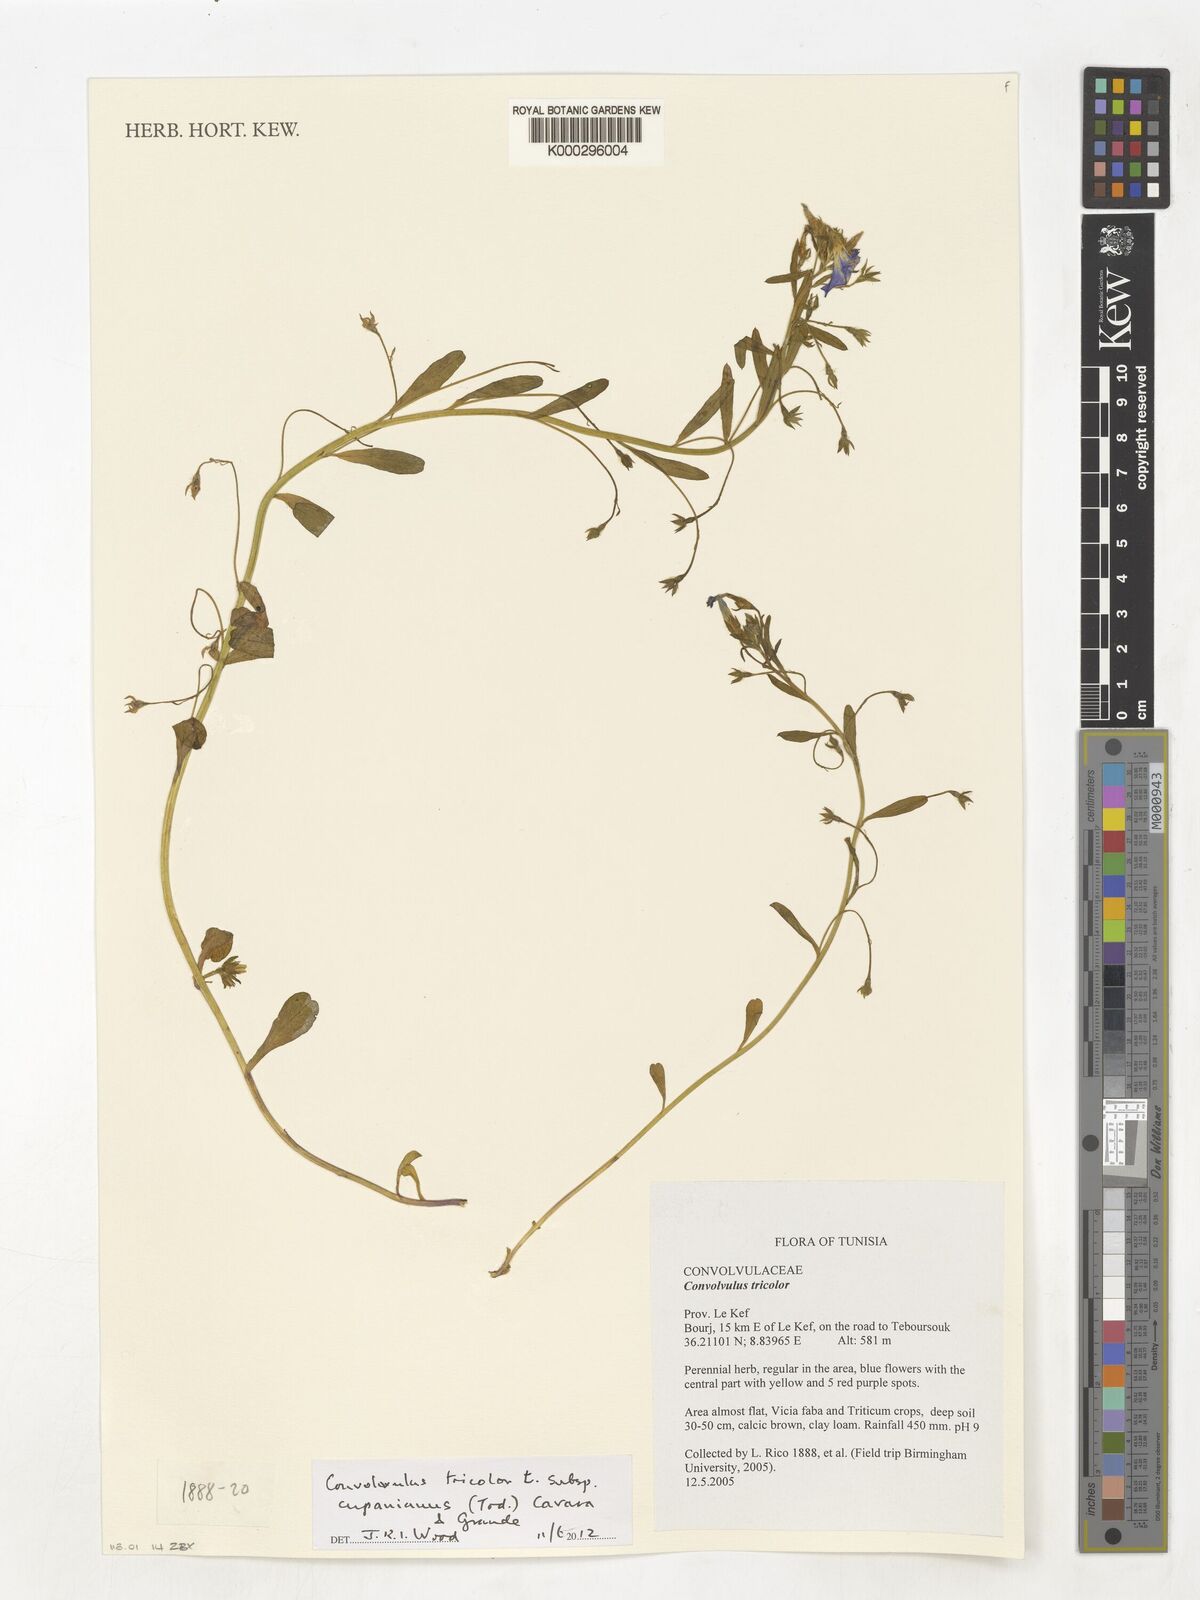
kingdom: Plantae
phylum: Tracheophyta
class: Magnoliopsida
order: Solanales
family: Convolvulaceae
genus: Convolvulus
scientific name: Convolvulus tricolor
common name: Dwarf morning-glory
